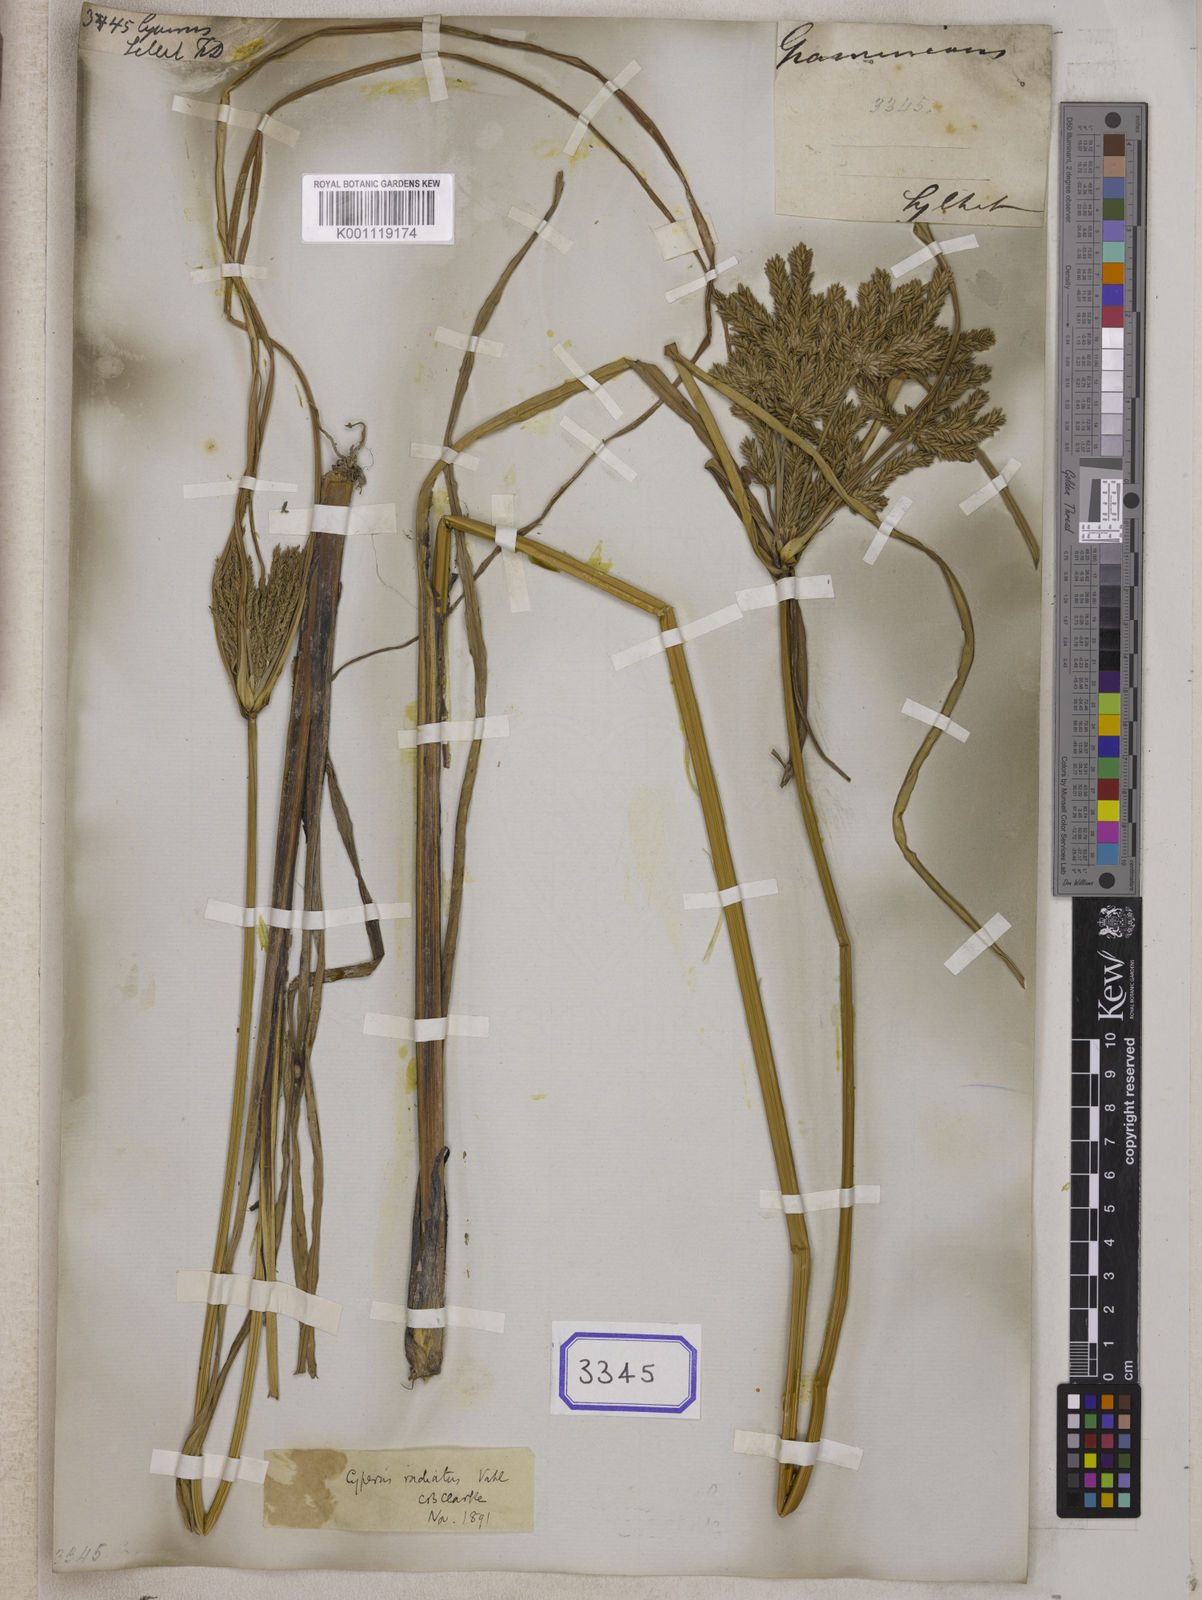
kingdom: Plantae
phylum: Tracheophyta
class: Liliopsida
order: Poales
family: Cyperaceae
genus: Cyperus
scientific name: Cyperus
